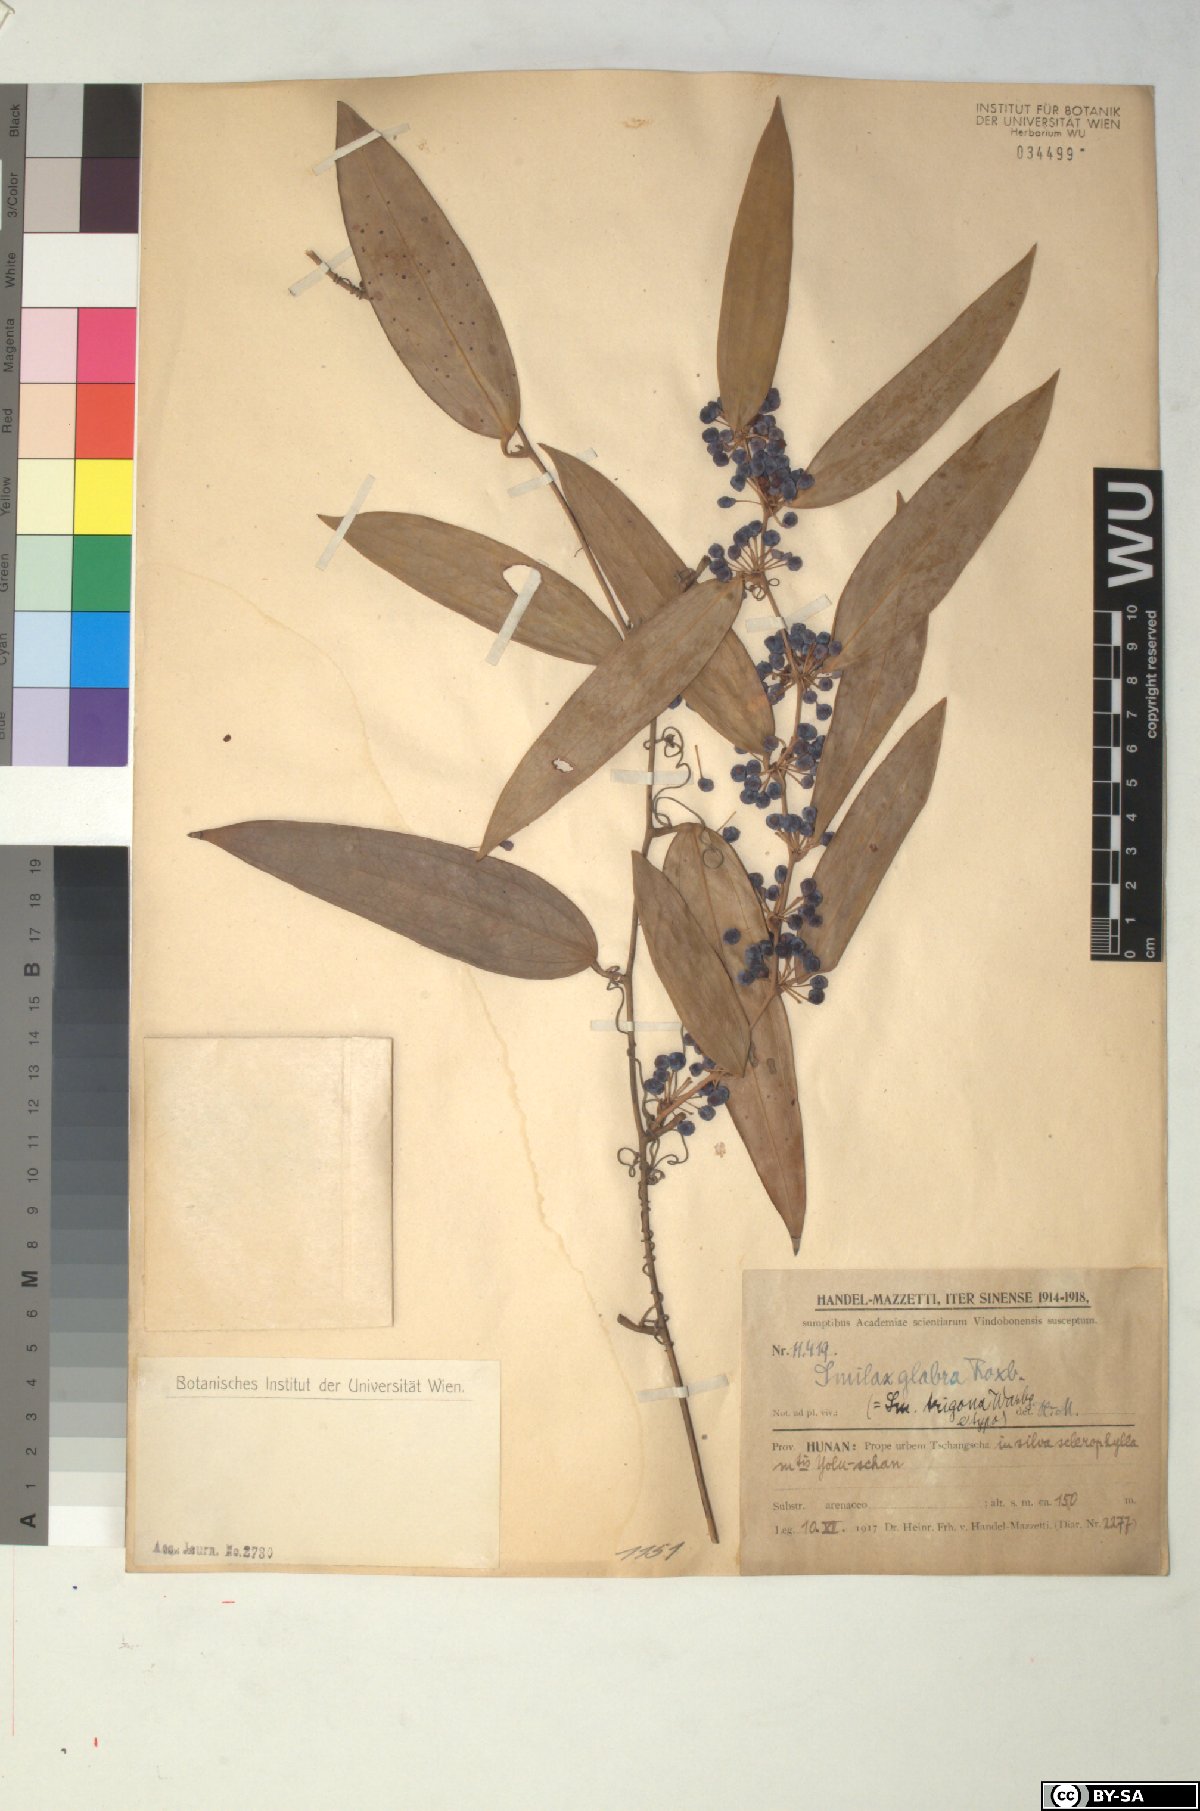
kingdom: Plantae
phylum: Tracheophyta
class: Liliopsida
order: Liliales
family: Smilacaceae
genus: Smilax
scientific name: Smilax glabra
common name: Chinese smilax
